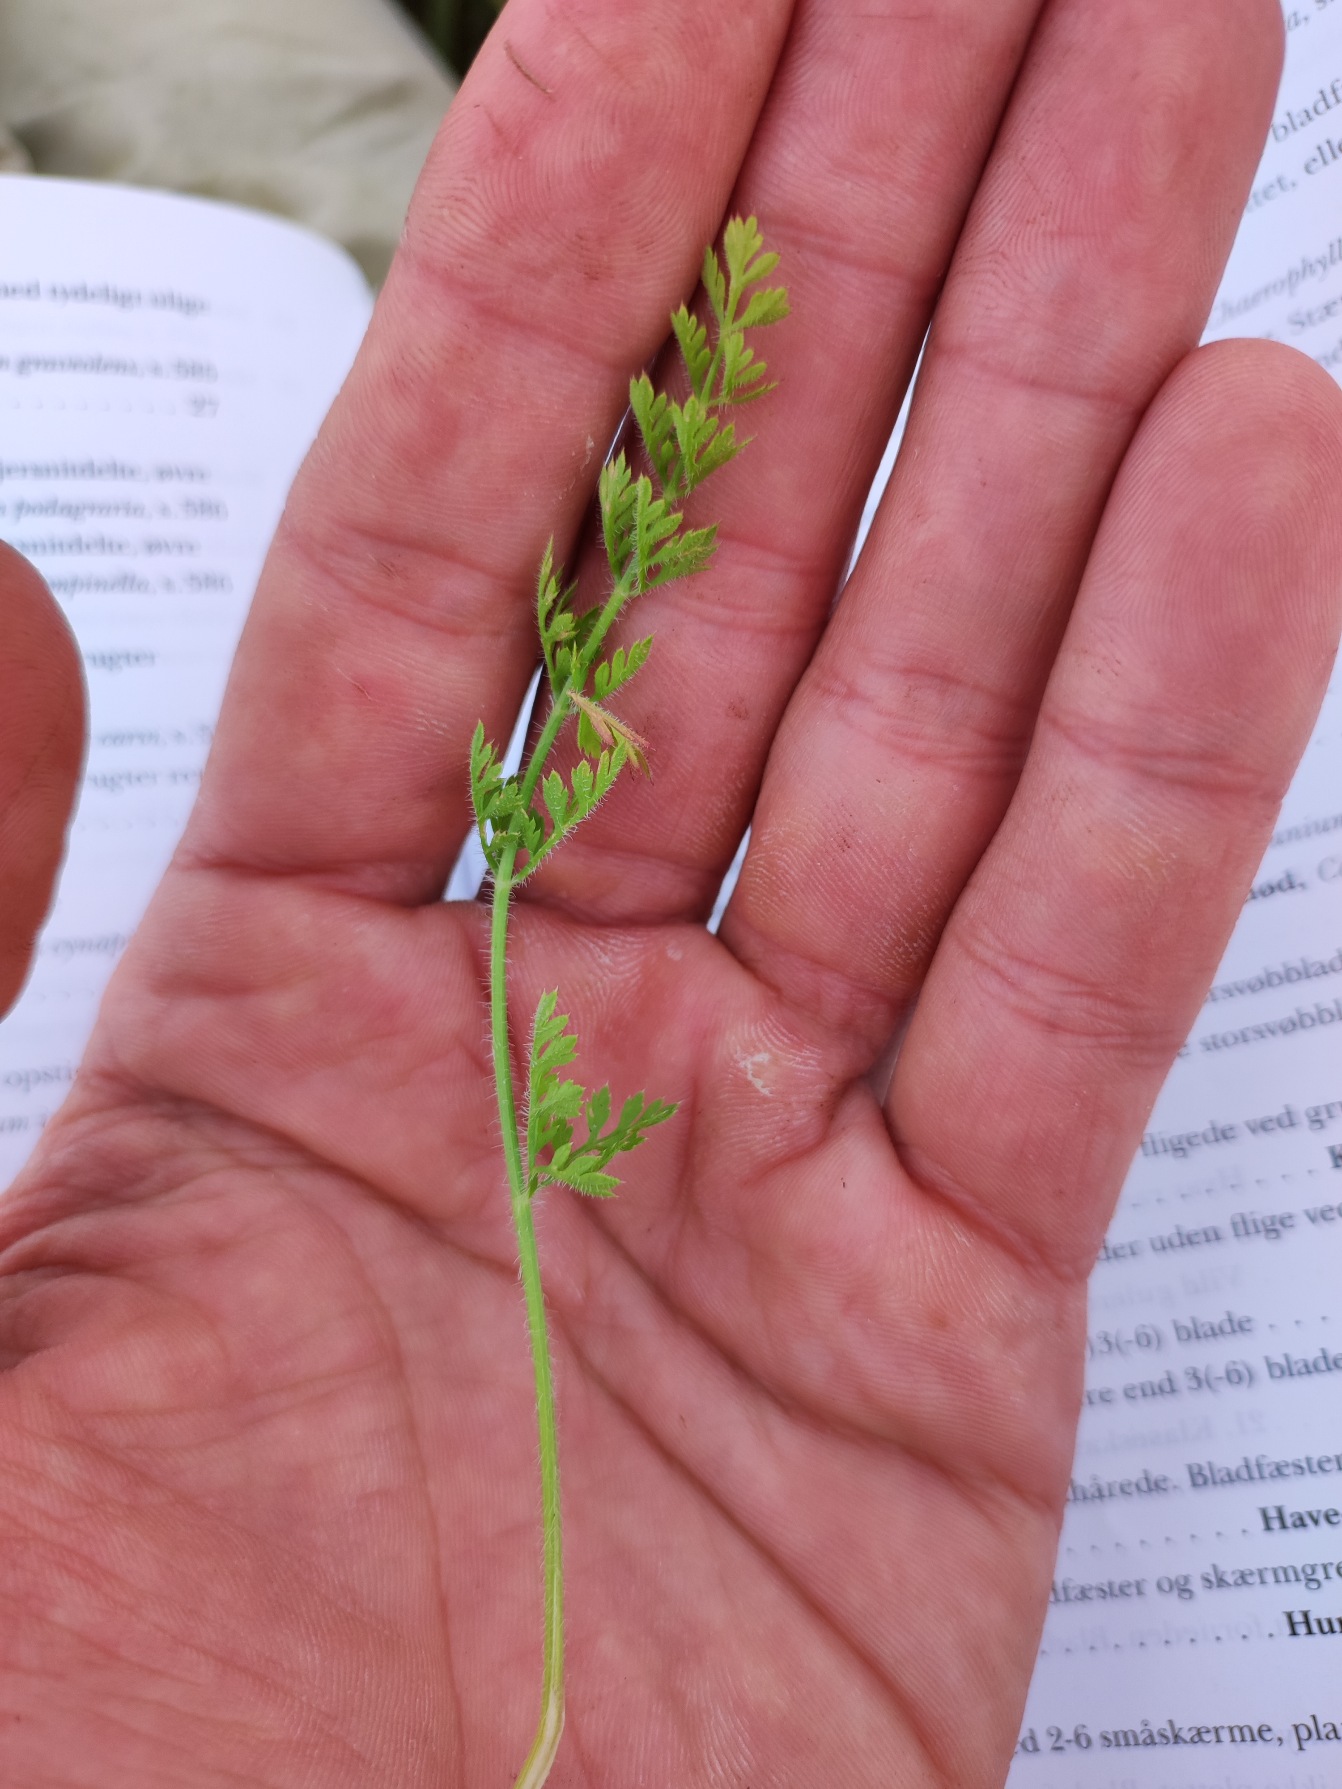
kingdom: Plantae
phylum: Tracheophyta
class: Magnoliopsida
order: Apiales
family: Apiaceae
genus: Daucus
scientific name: Daucus carota
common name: Vild gulerod
